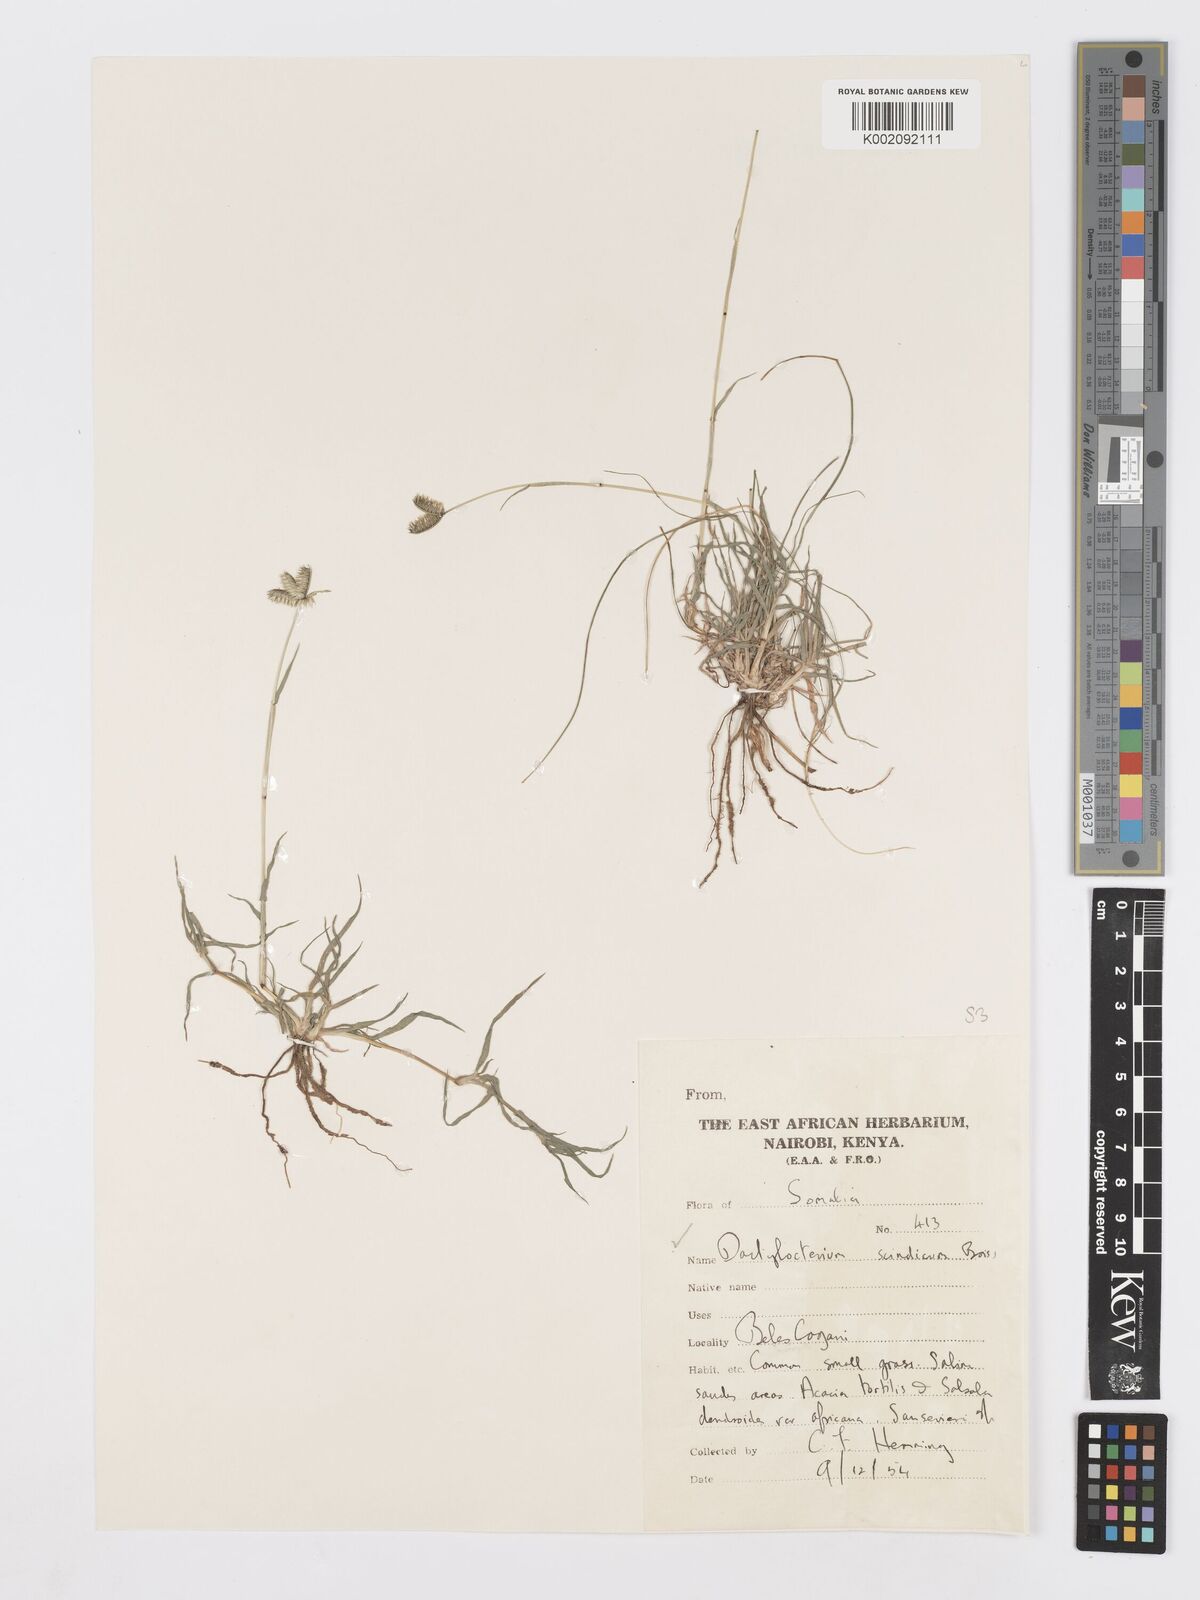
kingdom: Plantae
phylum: Tracheophyta
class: Liliopsida
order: Poales
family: Poaceae
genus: Dactyloctenium
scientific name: Dactyloctenium scindicum
